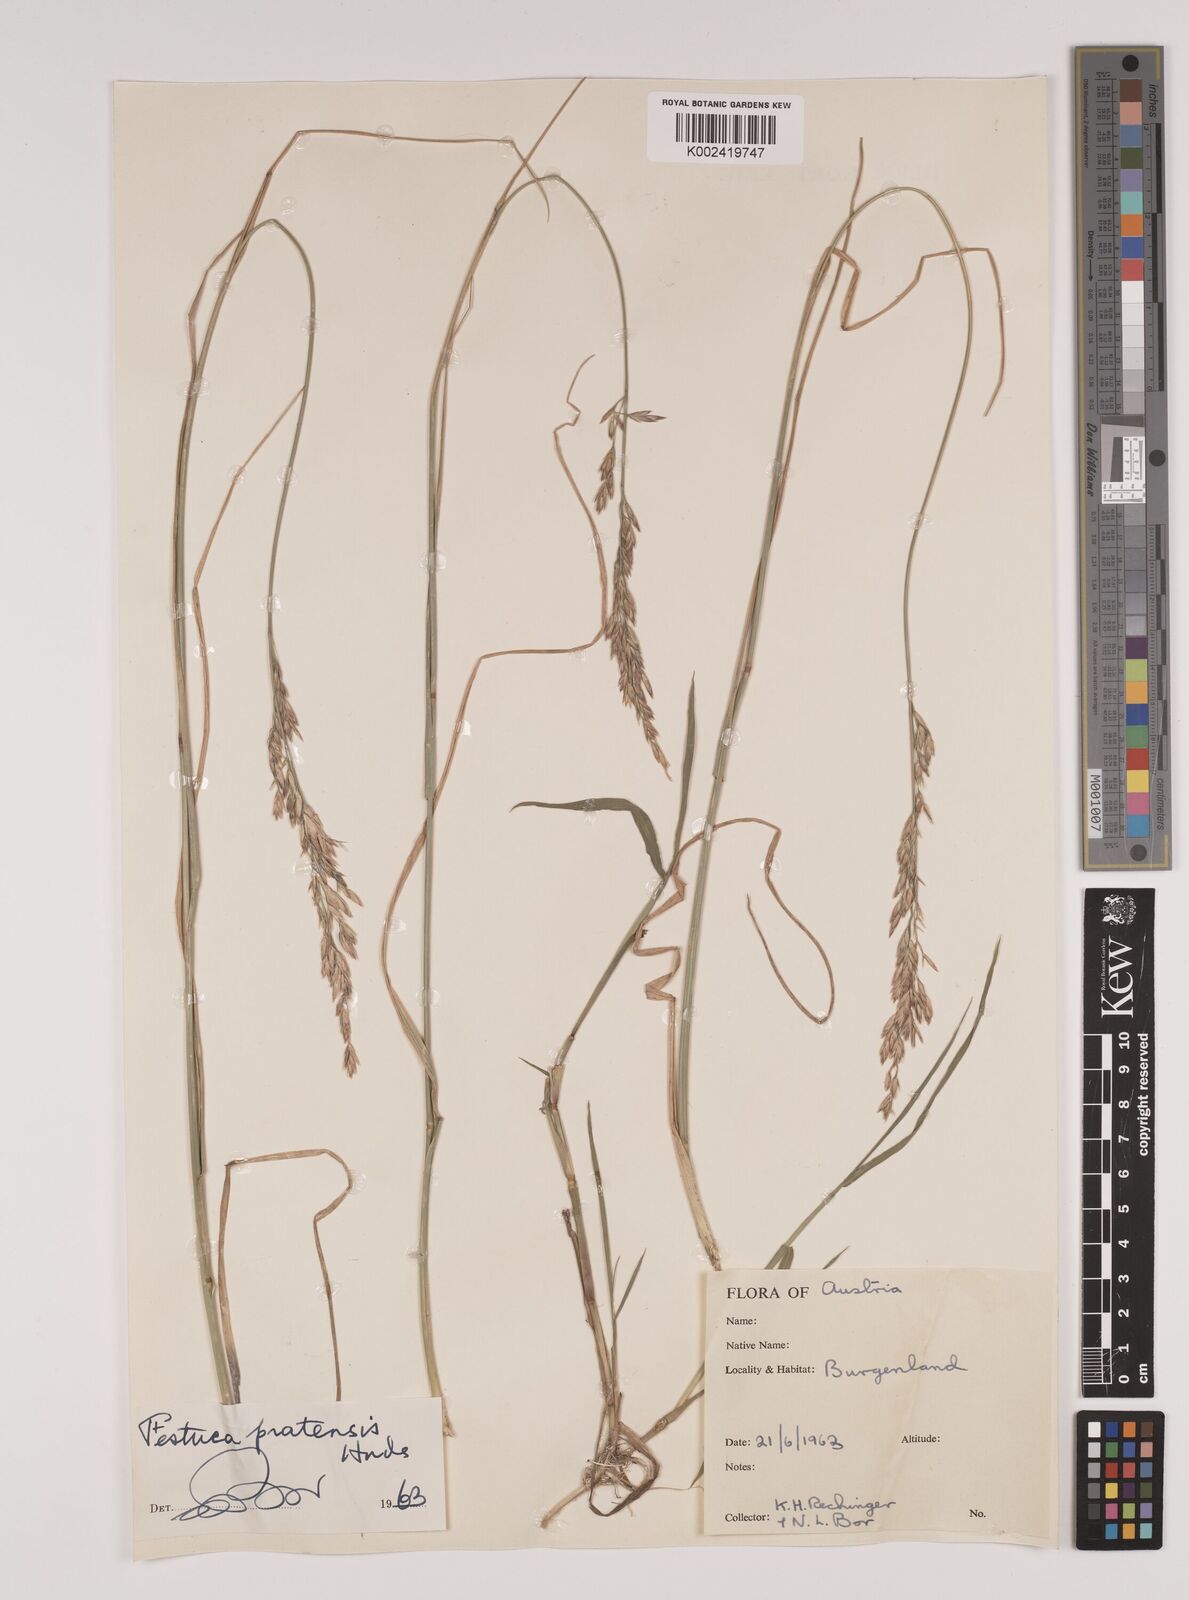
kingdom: Plantae
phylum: Tracheophyta
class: Liliopsida
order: Poales
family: Poaceae
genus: Lolium
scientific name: Lolium pratense
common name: Dover grass
